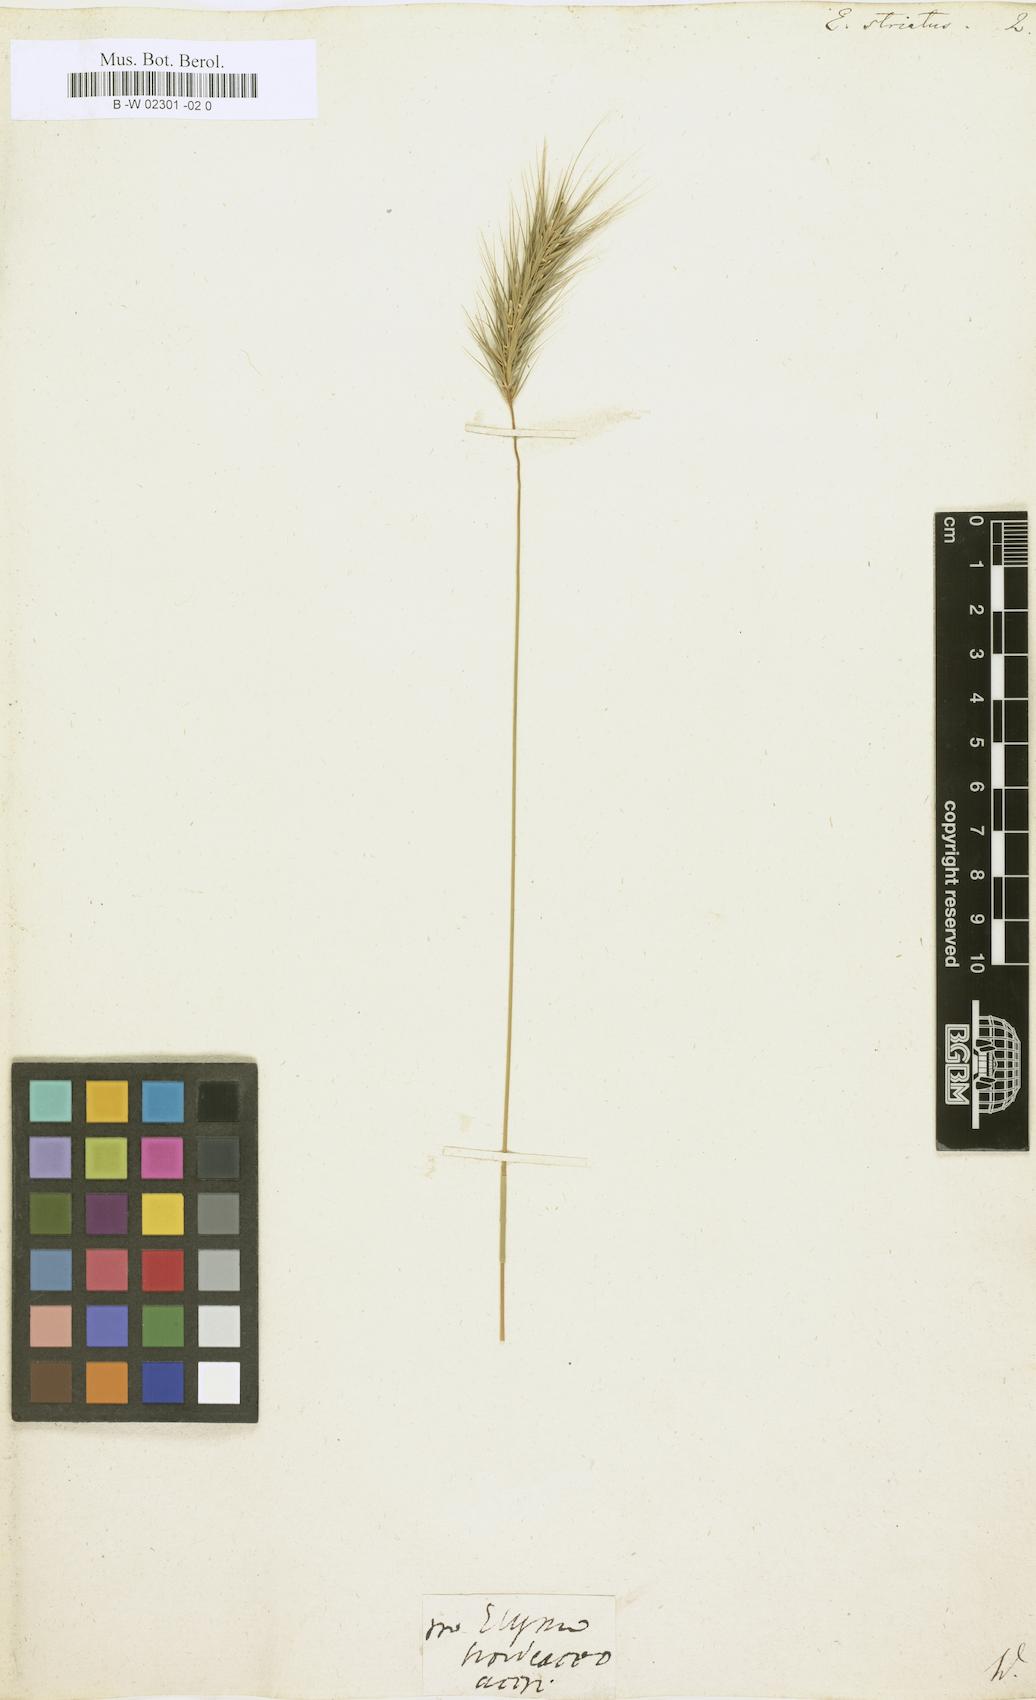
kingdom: Plantae
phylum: Tracheophyta
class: Liliopsida
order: Poales
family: Poaceae
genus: Elymus
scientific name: Elymus striatus
